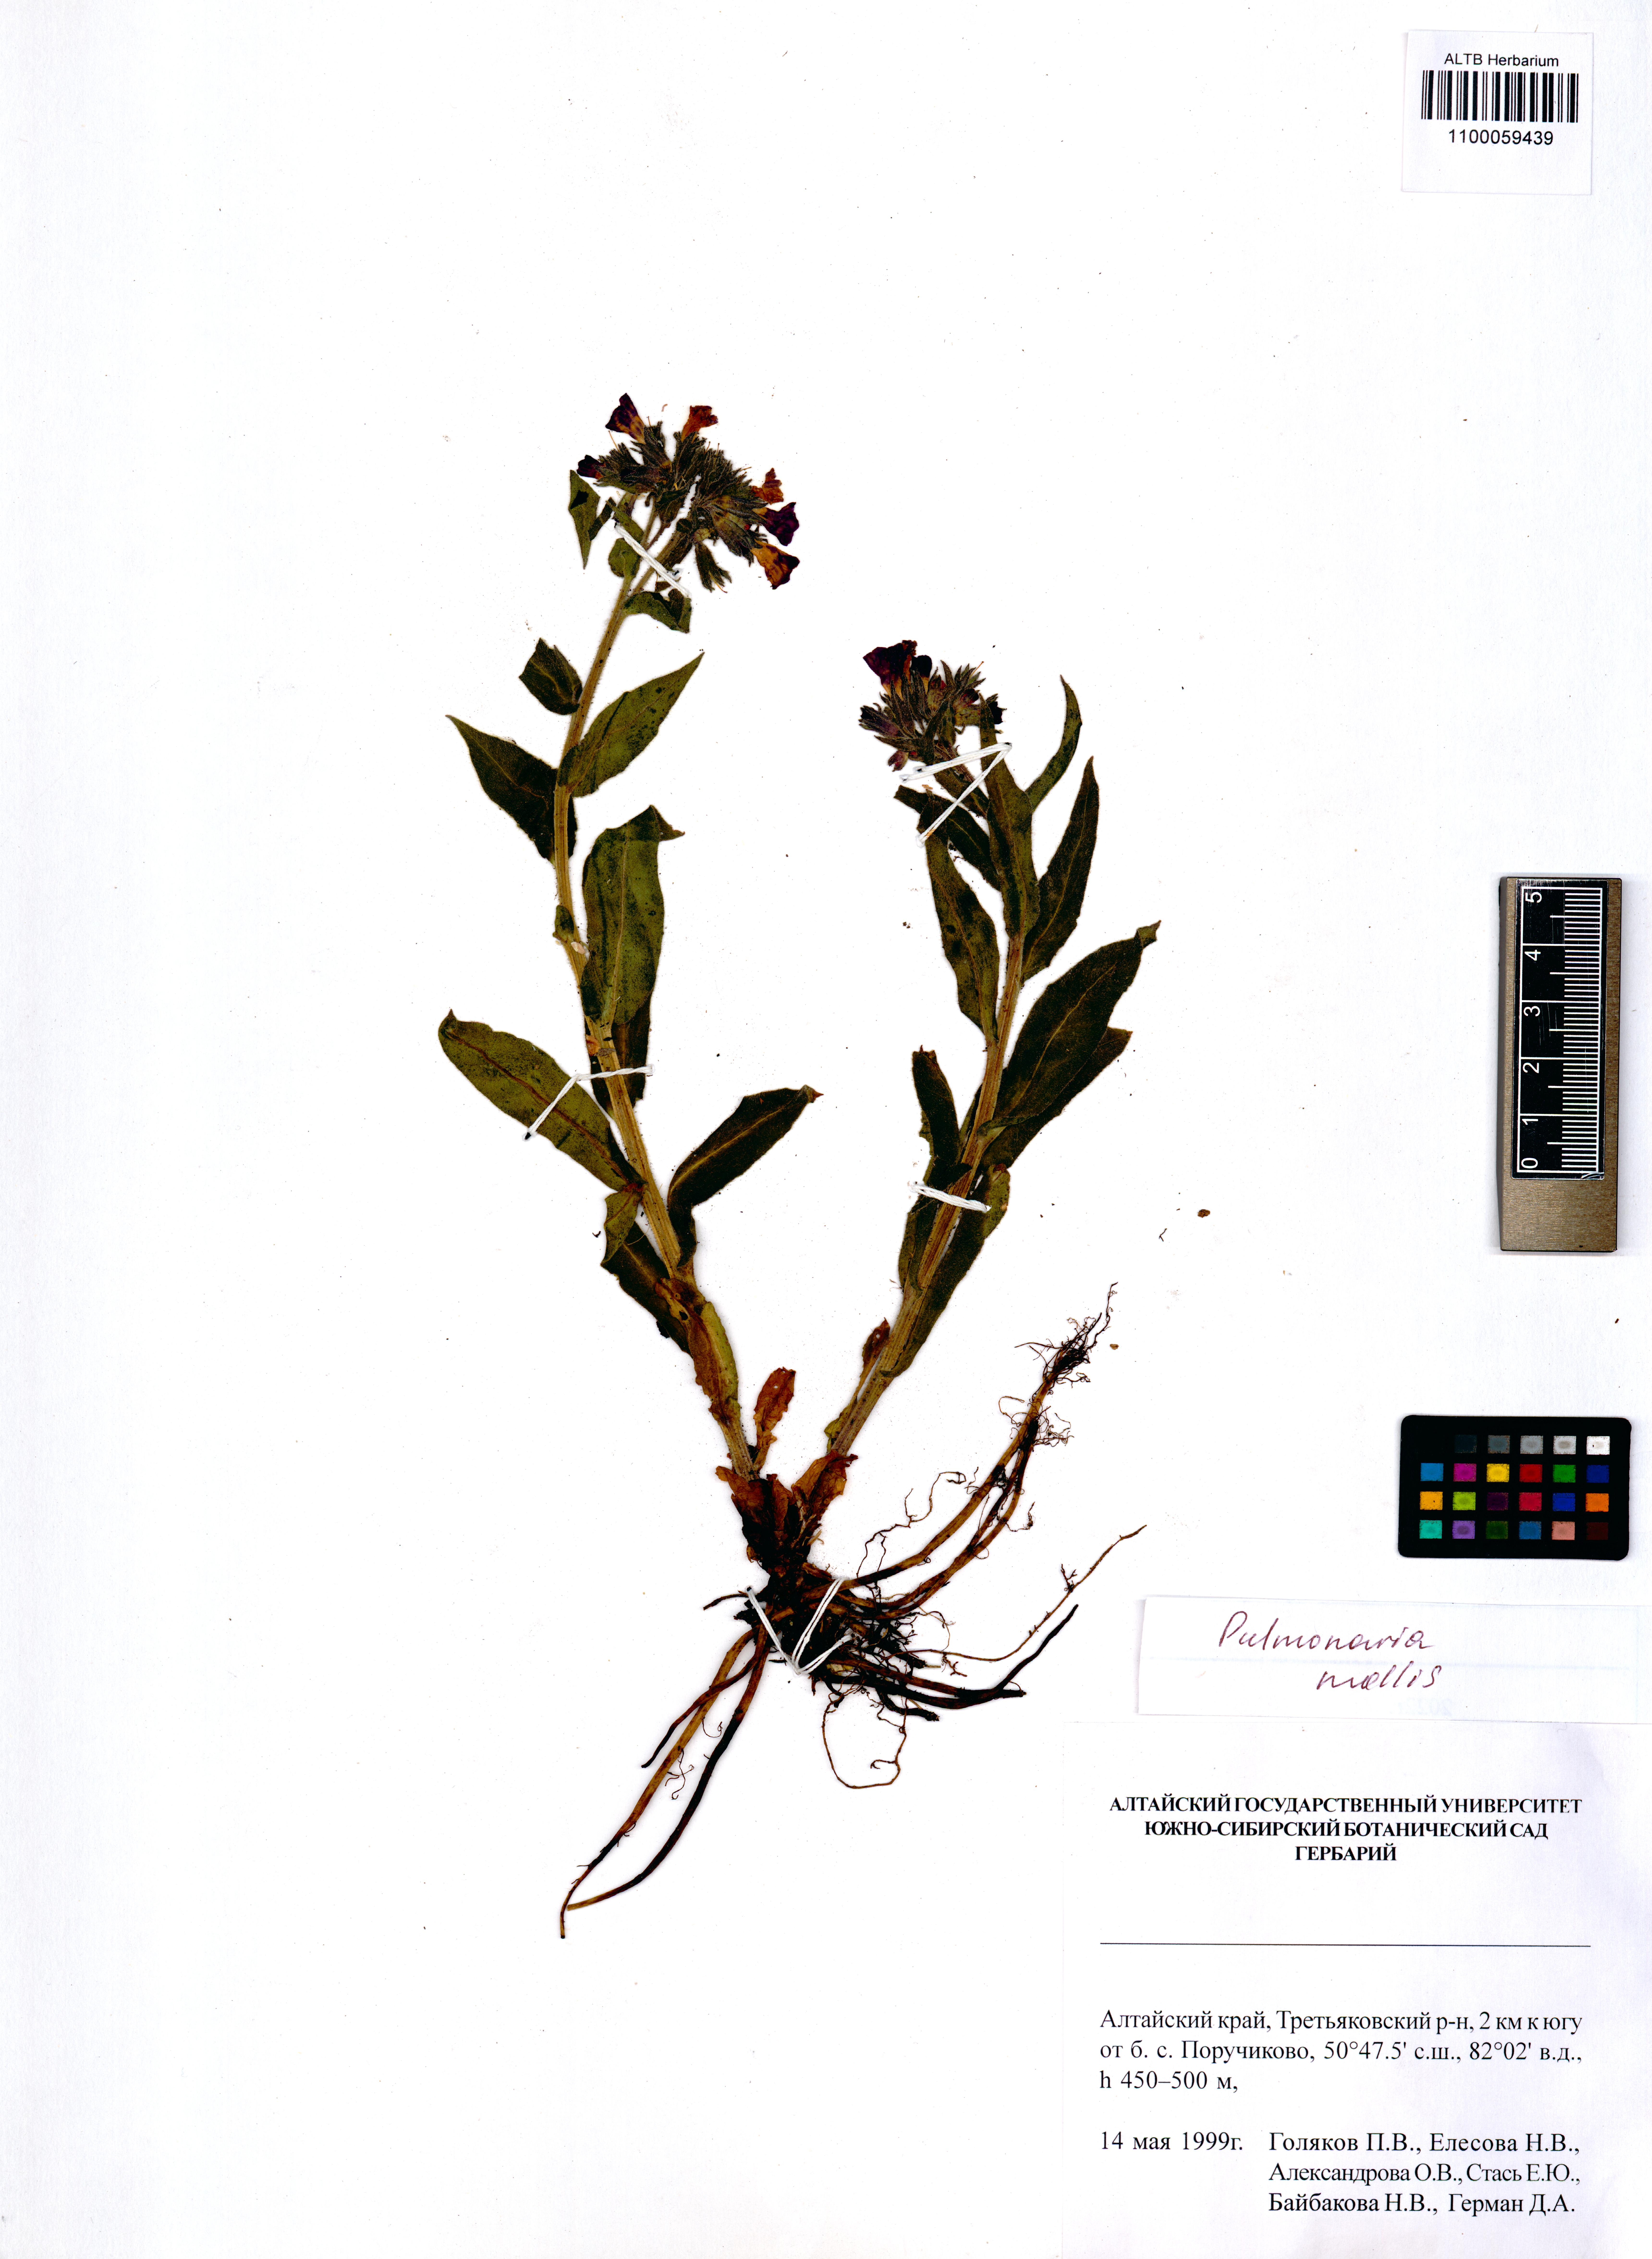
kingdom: Plantae
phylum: Tracheophyta
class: Magnoliopsida
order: Boraginales
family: Boraginaceae
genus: Pulmonaria
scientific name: Pulmonaria mollis
